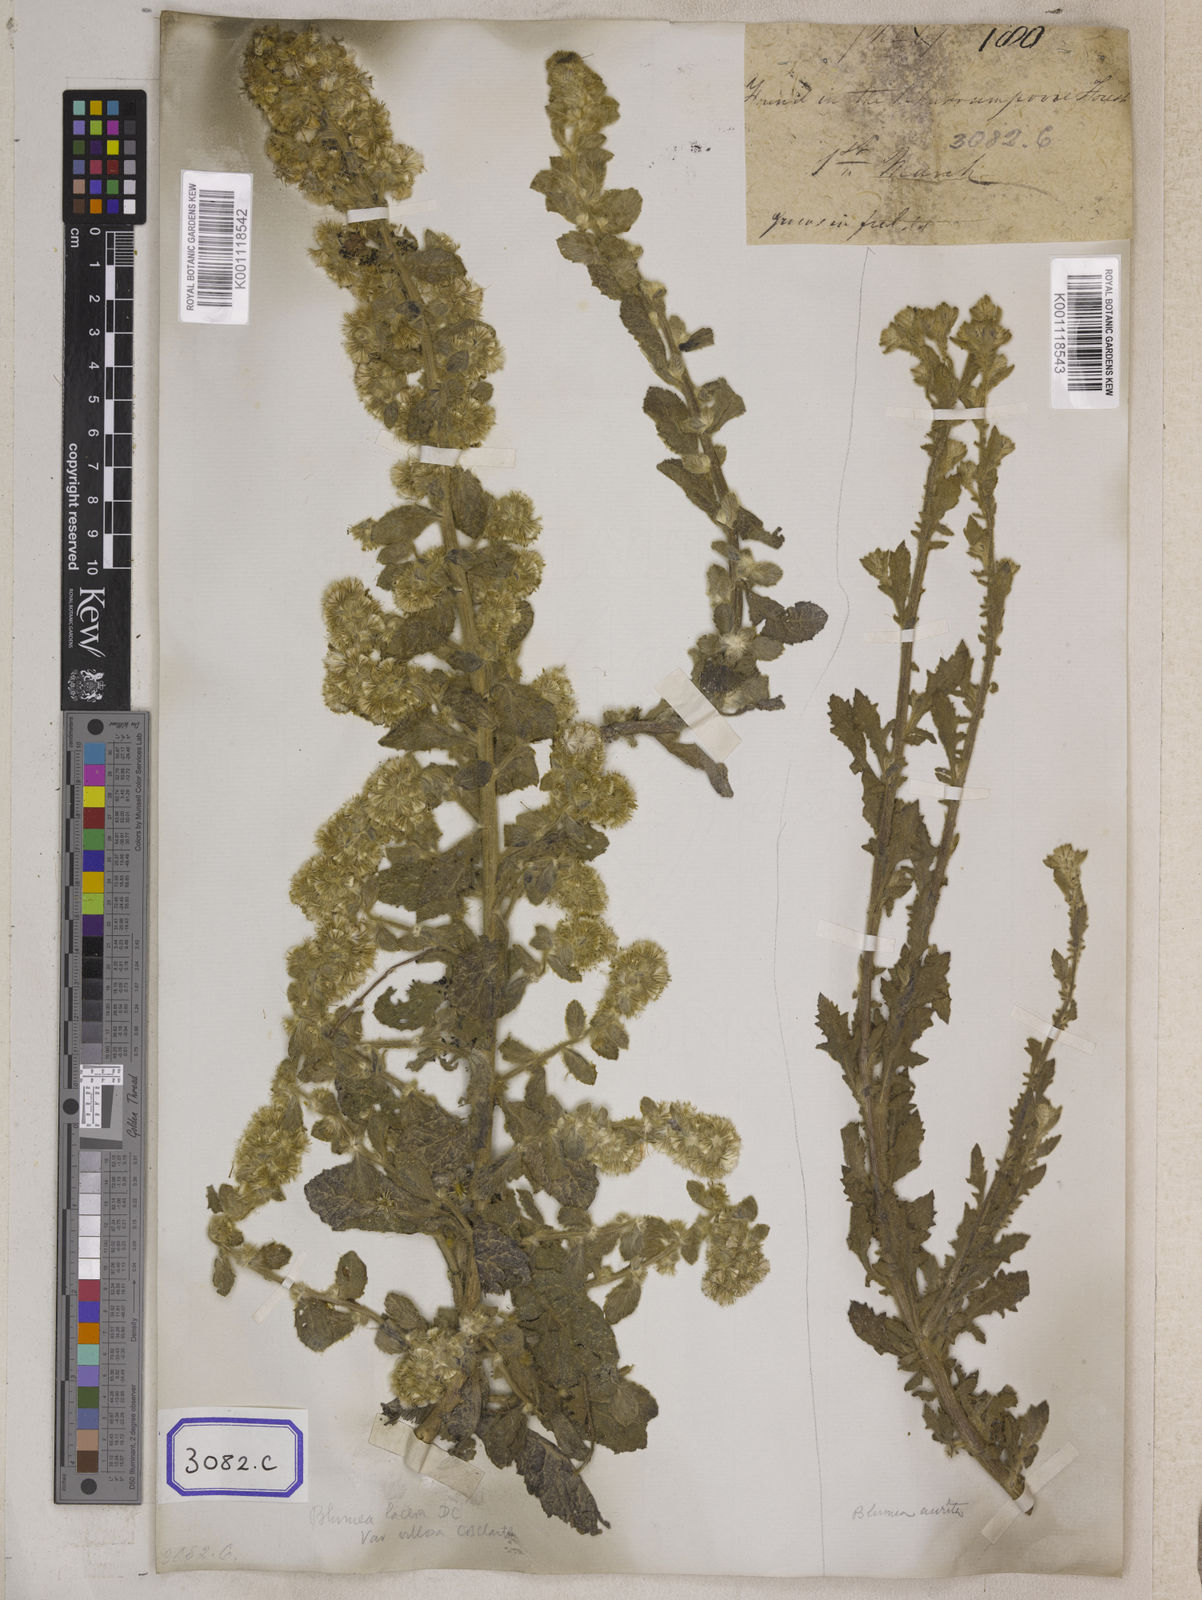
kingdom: Plantae
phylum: Tracheophyta
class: Magnoliopsida
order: Asterales
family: Asteraceae
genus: Blumea
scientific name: Blumea lacera
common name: Malay blumea
